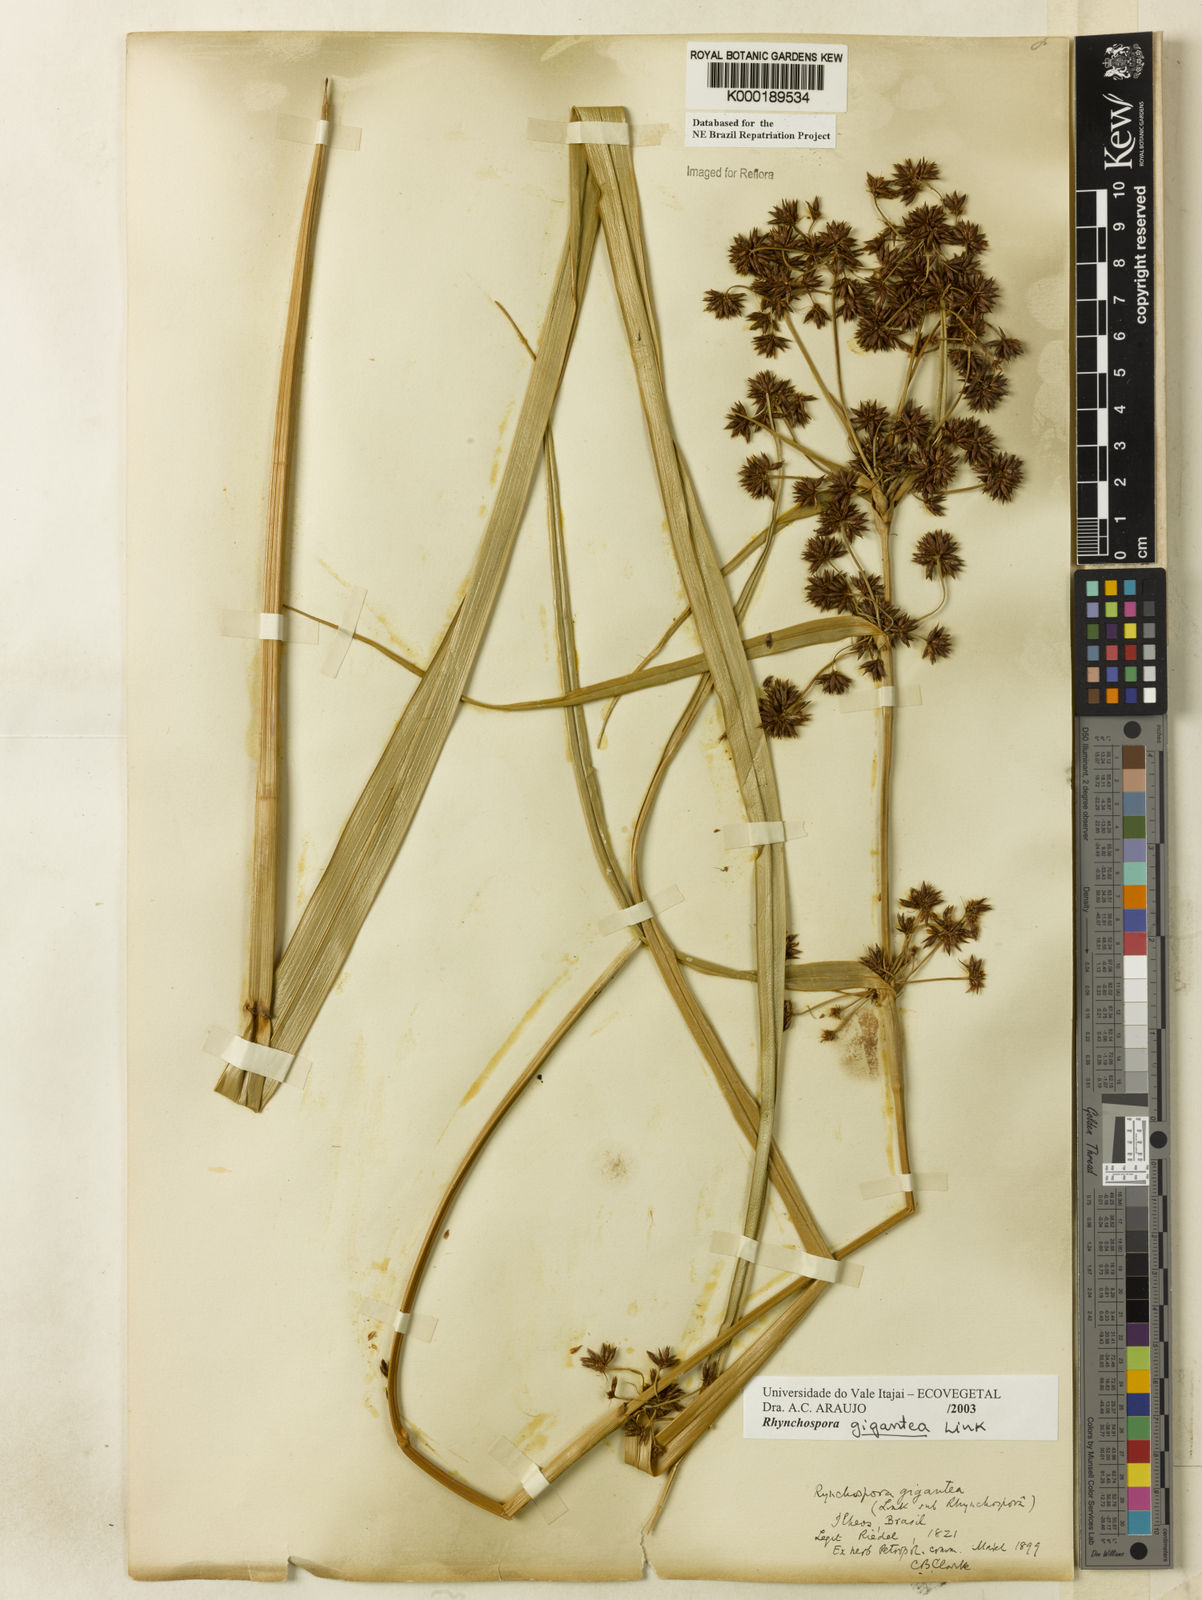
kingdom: Plantae
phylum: Tracheophyta
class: Liliopsida
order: Poales
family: Cyperaceae
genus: Rhynchospora
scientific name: Rhynchospora gigantea
